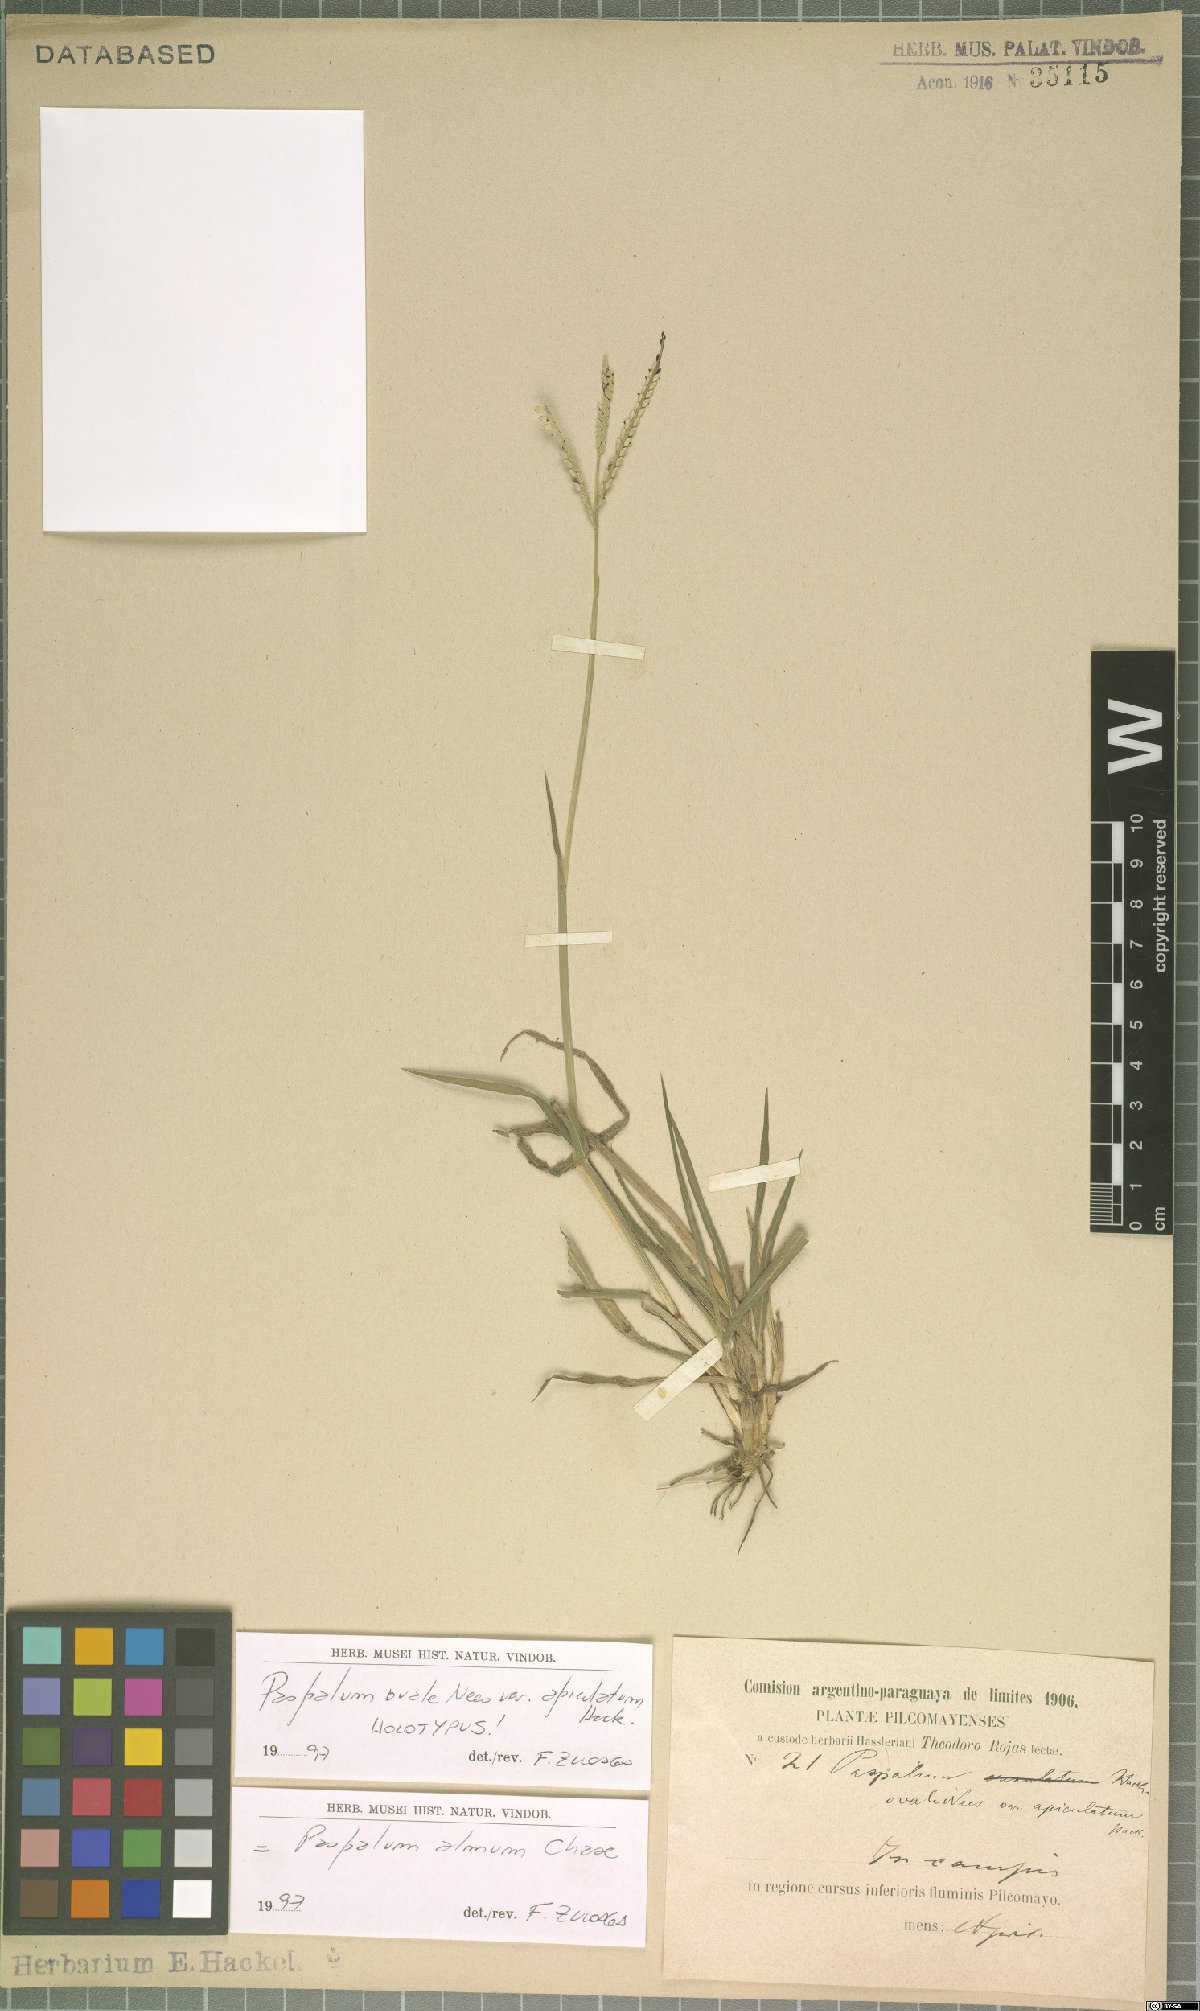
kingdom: Plantae
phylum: Tracheophyta
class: Liliopsida
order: Poales
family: Poaceae
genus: Paspalum
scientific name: Paspalum almum
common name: Comb's crowngrass
